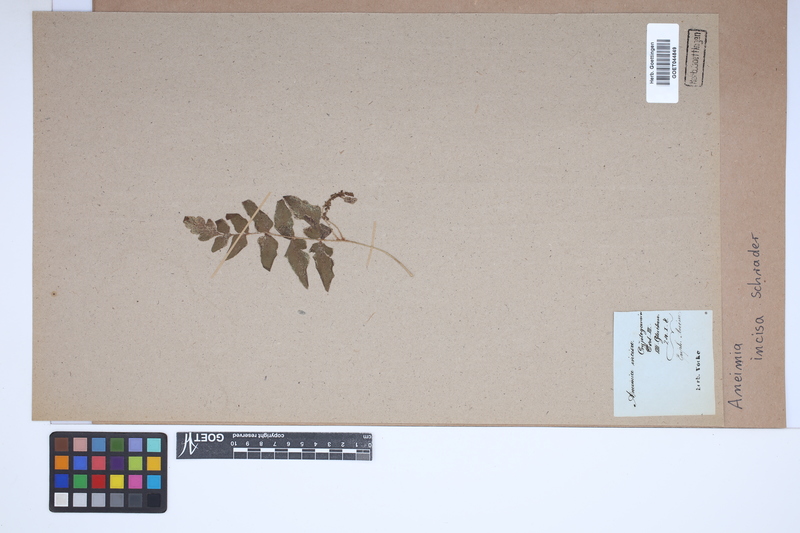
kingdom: Plantae
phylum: Tracheophyta
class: Polypodiopsida
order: Schizaeales
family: Anemiaceae
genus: Anemia
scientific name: Anemia hirta
